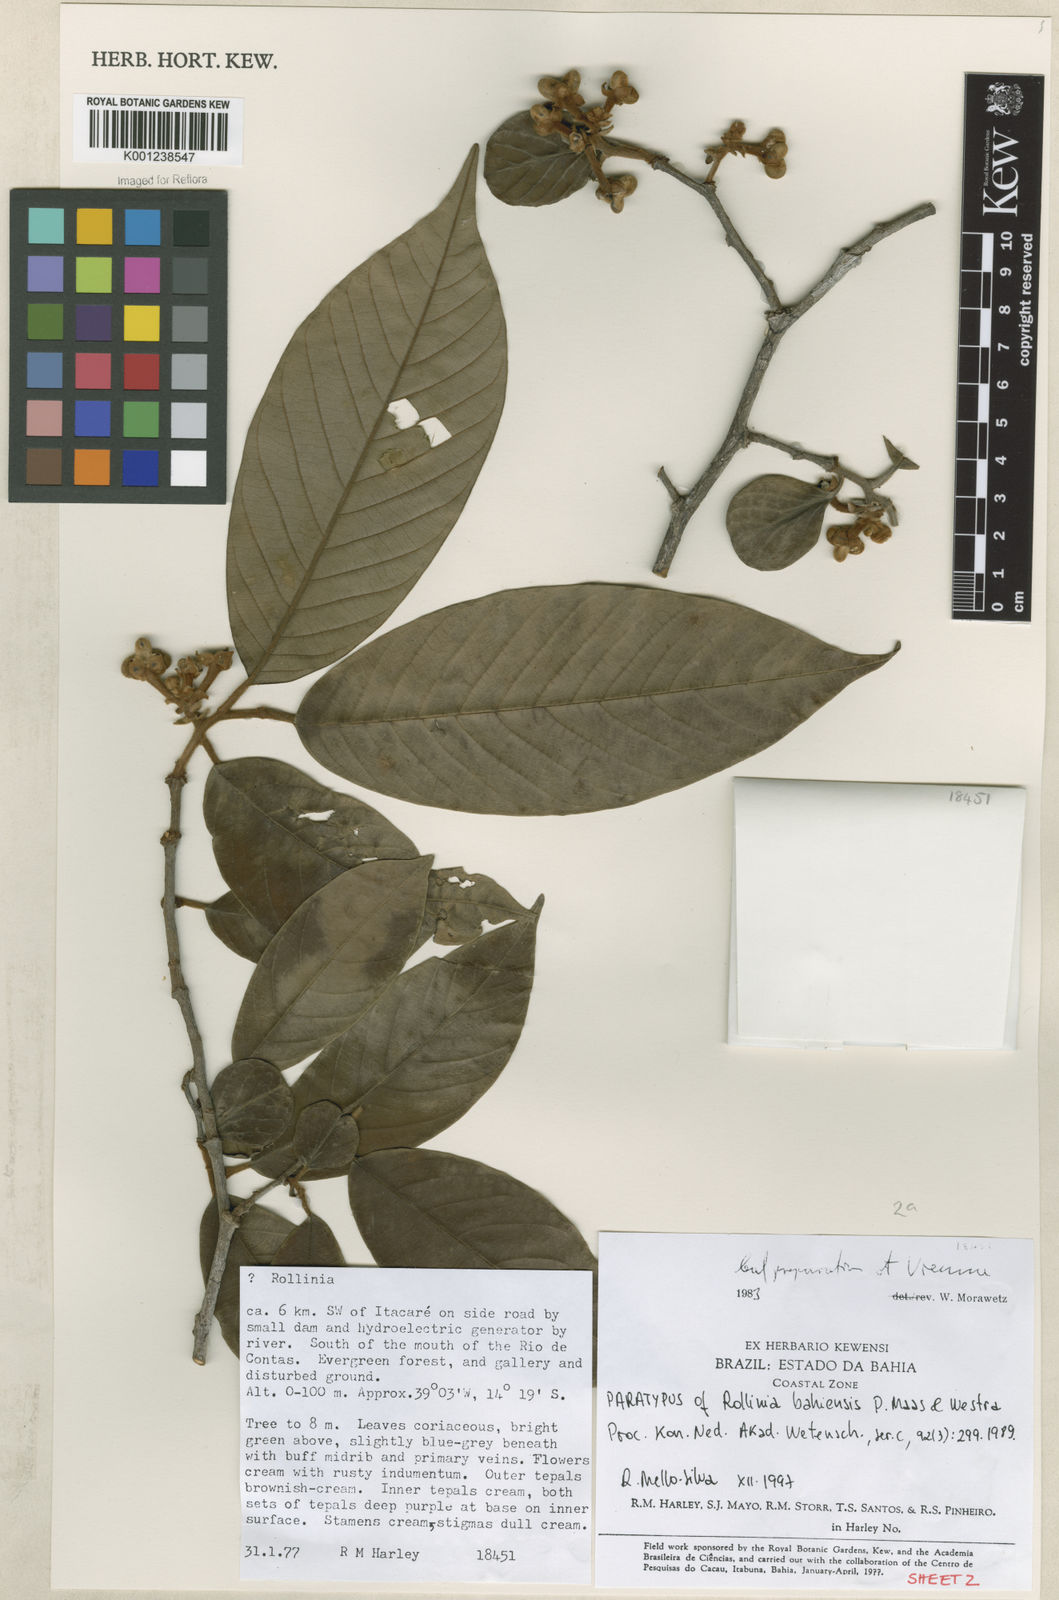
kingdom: Plantae
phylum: Tracheophyta
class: Magnoliopsida
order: Magnoliales
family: Annonaceae
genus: Annona
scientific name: Annona bahiensis
